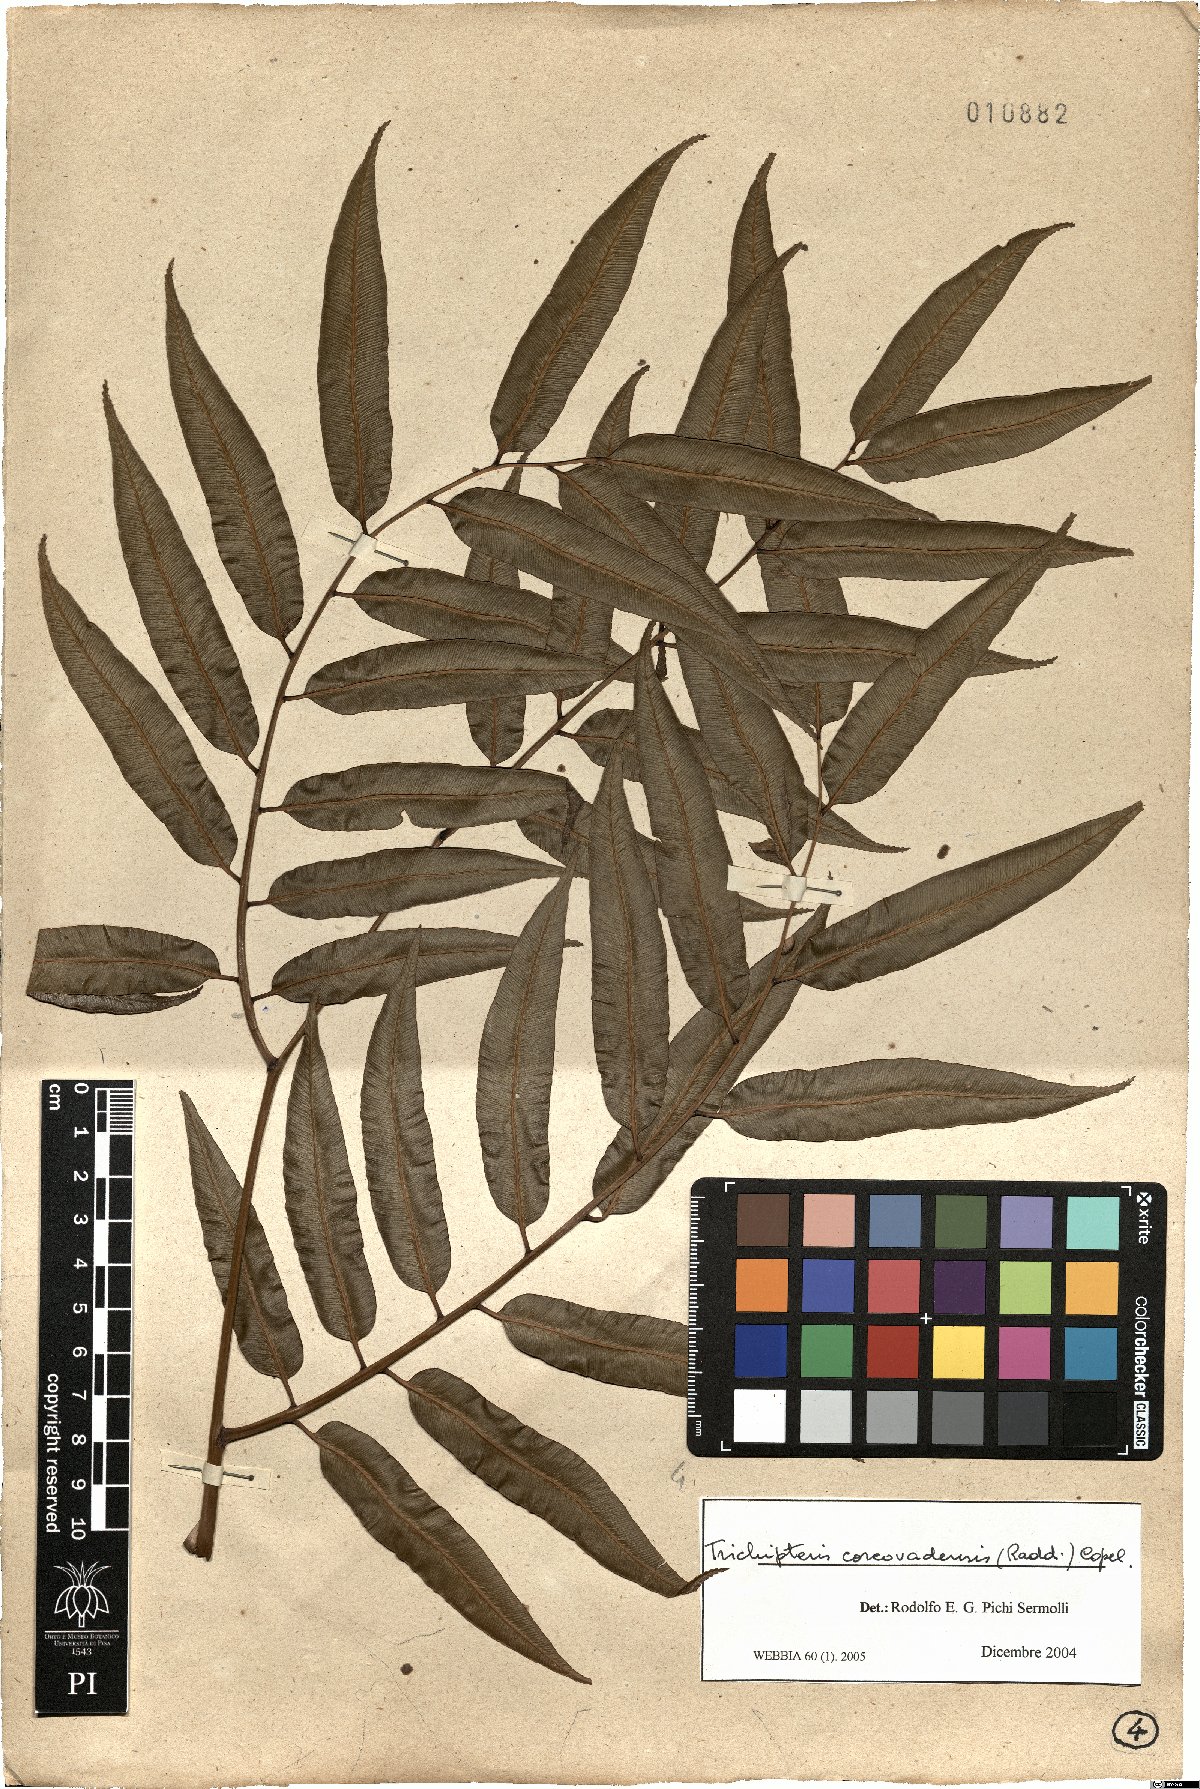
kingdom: Plantae
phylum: Tracheophyta
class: Polypodiopsida
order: Cyatheales
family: Cyatheaceae
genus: Cyathea
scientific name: Cyathea corcovadensis
